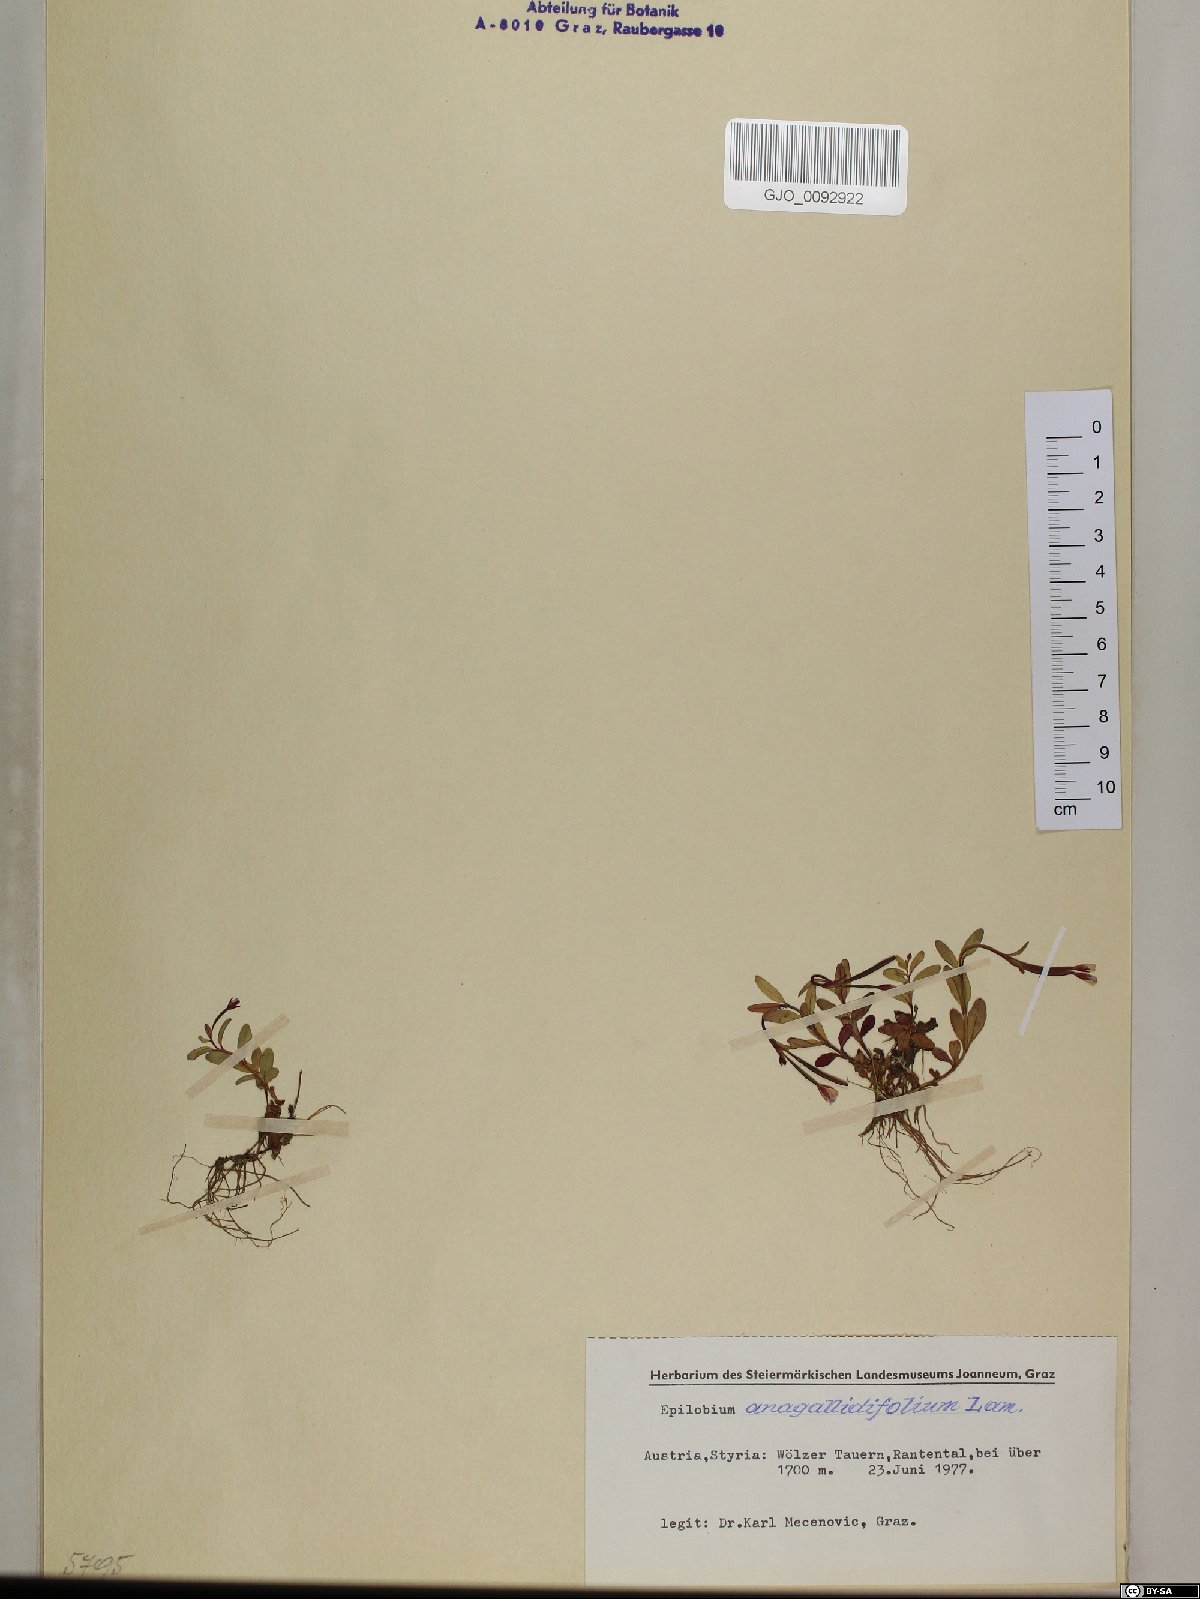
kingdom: Plantae
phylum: Tracheophyta
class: Magnoliopsida
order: Myrtales
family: Onagraceae
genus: Epilobium
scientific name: Epilobium anagallidifolium
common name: Alpine willowherb
